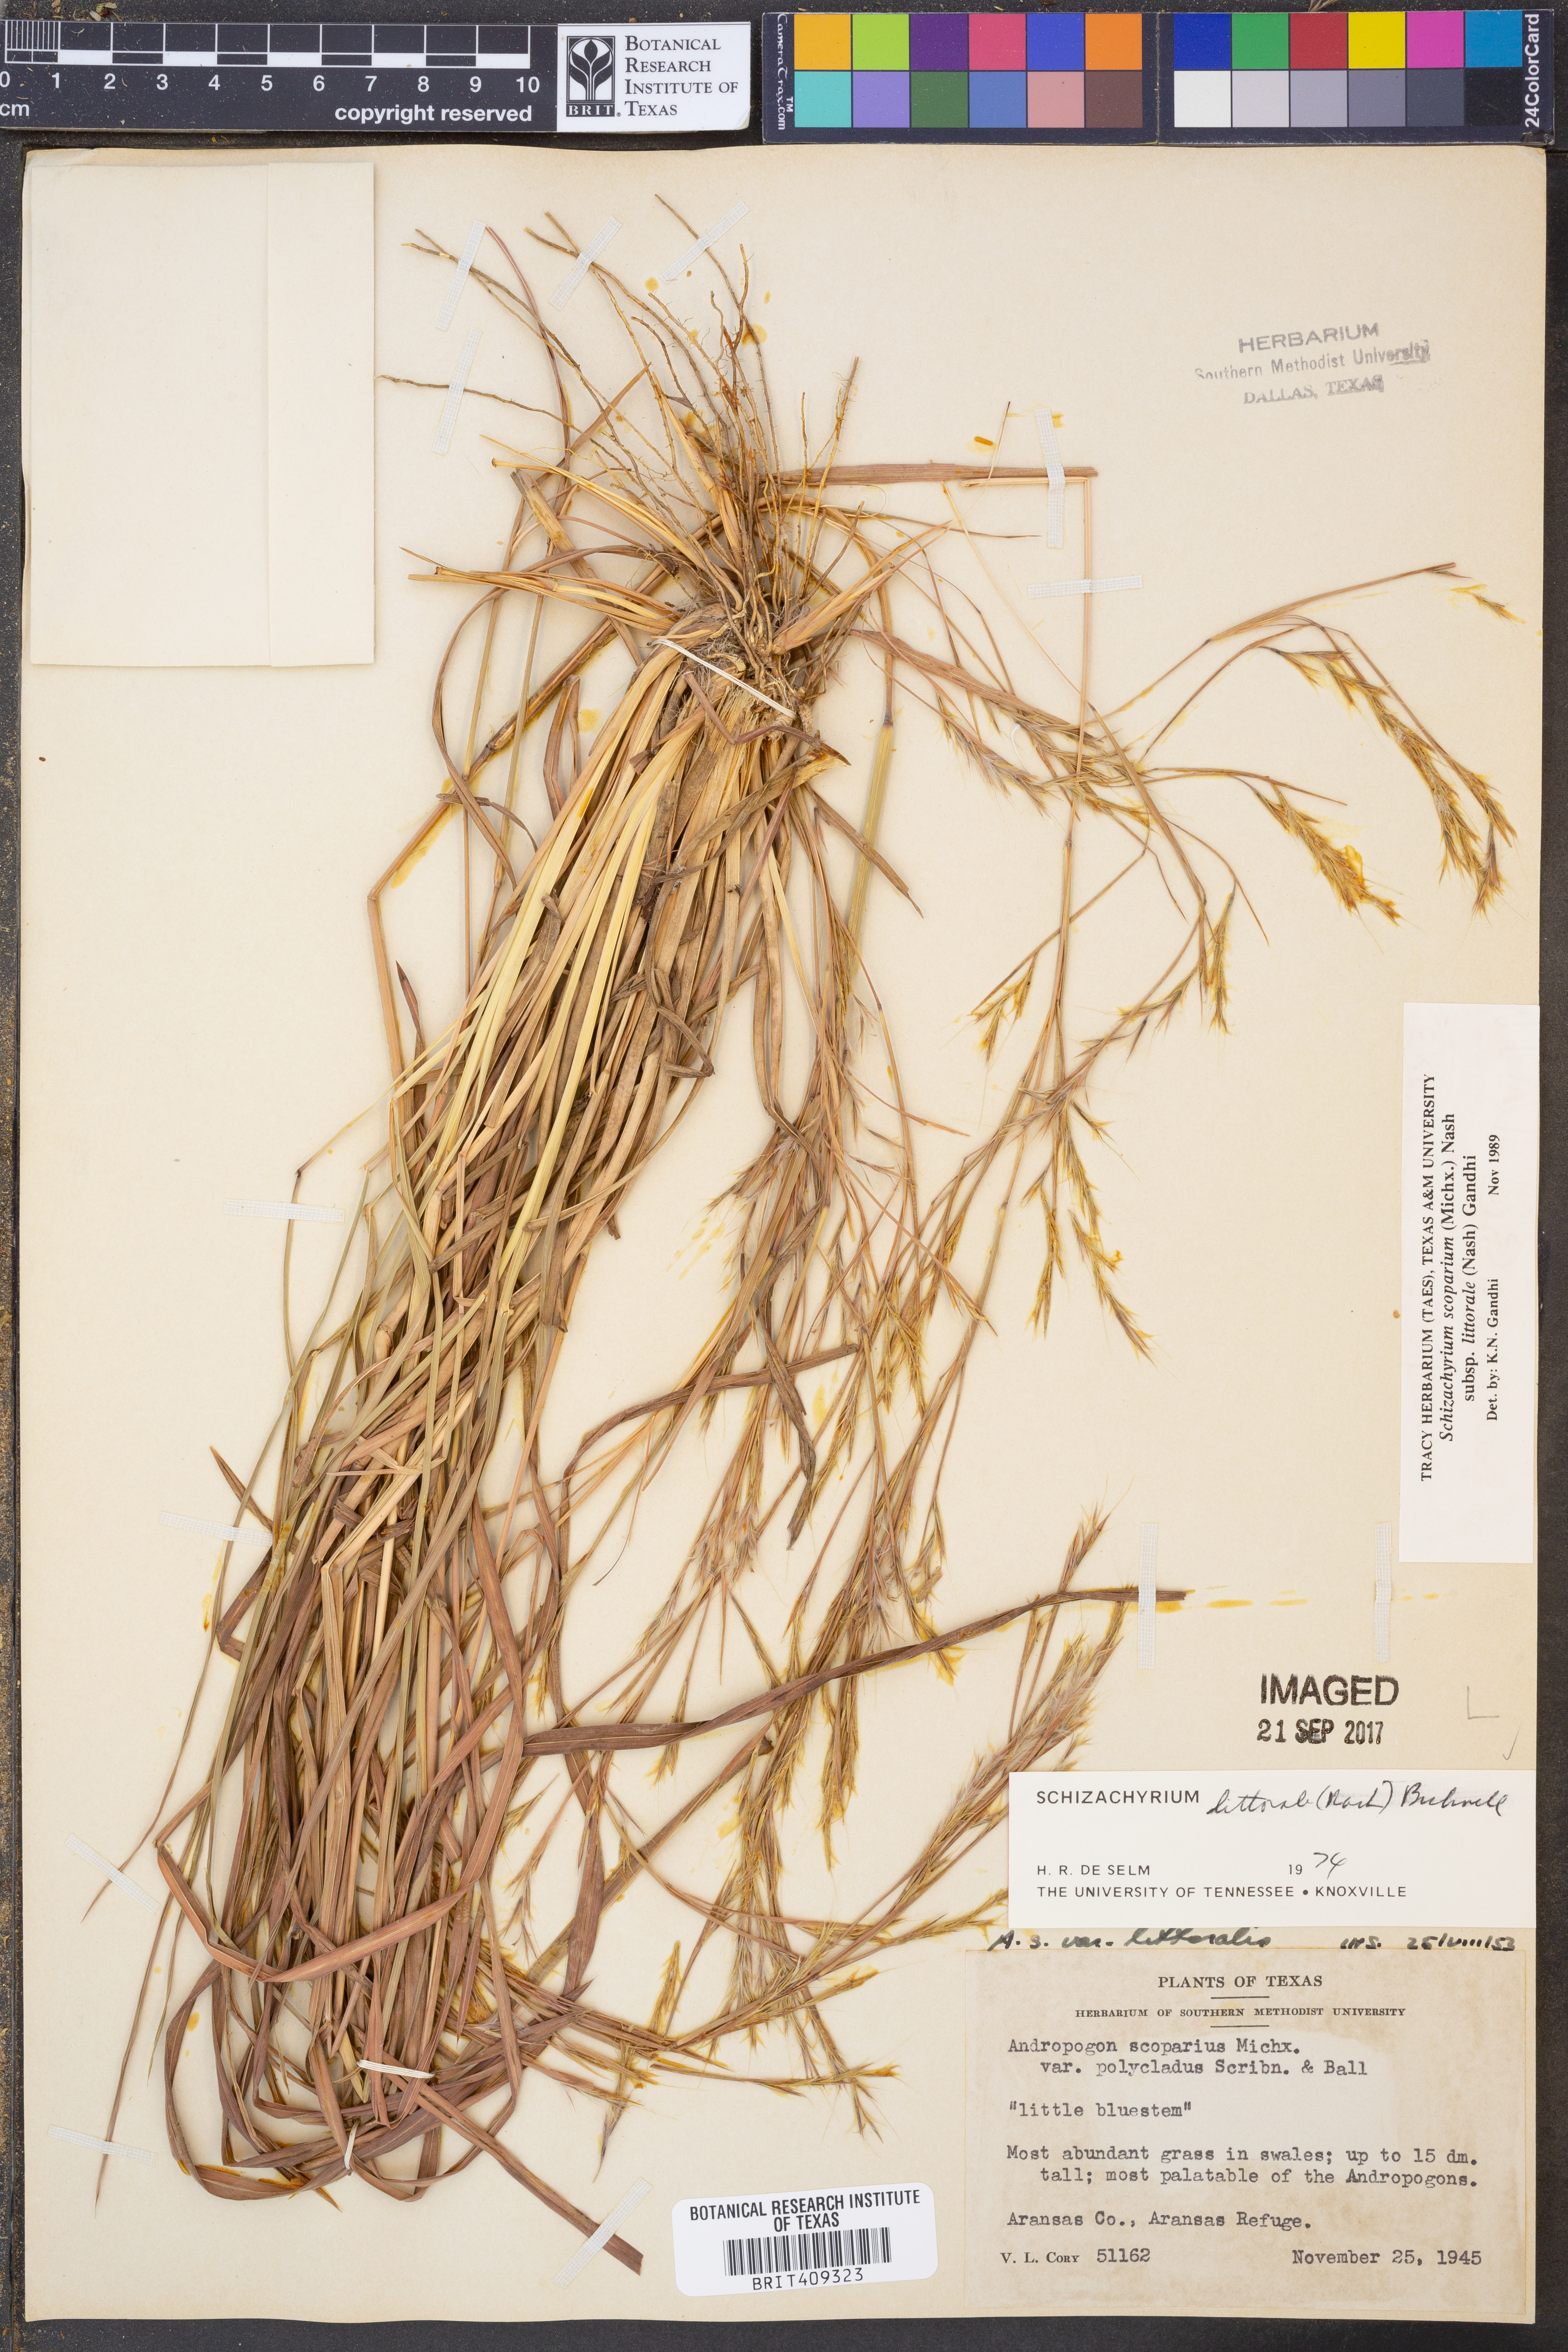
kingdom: Plantae
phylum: Tracheophyta
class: Liliopsida
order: Poales
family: Poaceae
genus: Schizachyrium
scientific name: Schizachyrium scoparium
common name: Little bluestem
